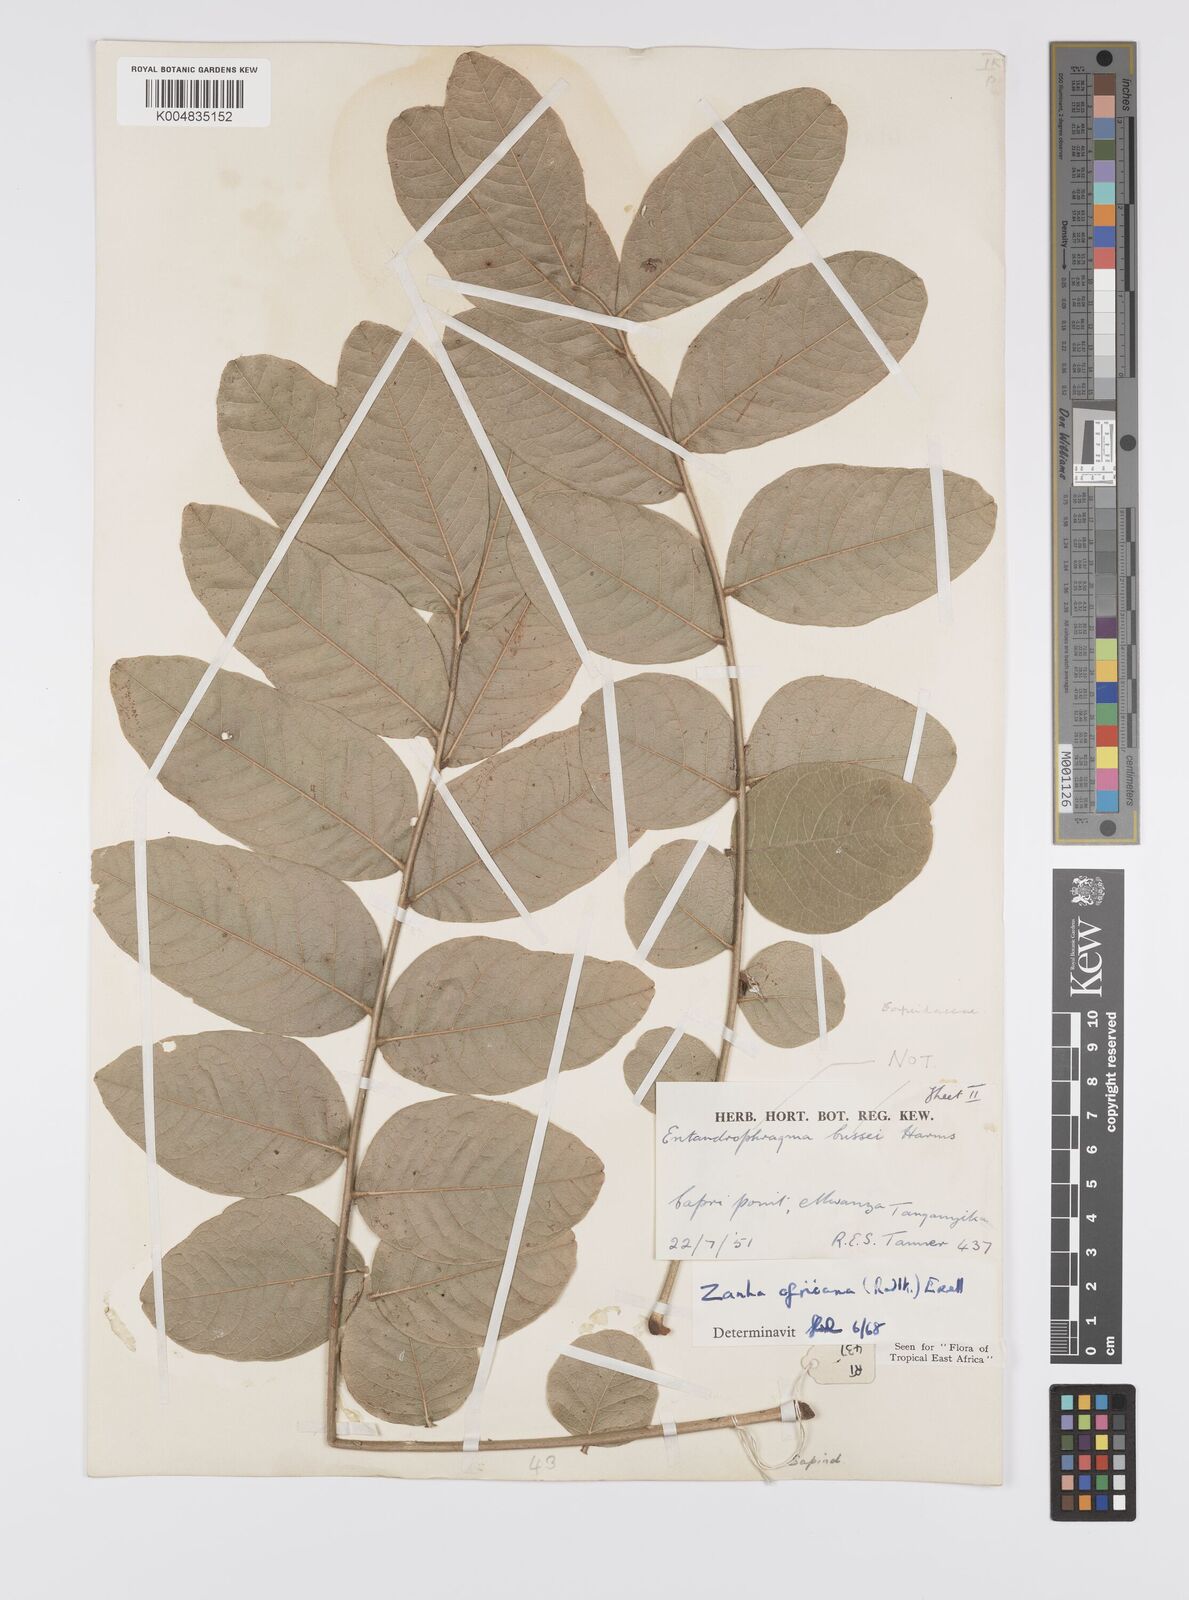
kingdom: Plantae
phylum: Tracheophyta
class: Magnoliopsida
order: Sapindales
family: Sapindaceae
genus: Zanha
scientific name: Zanha africana
